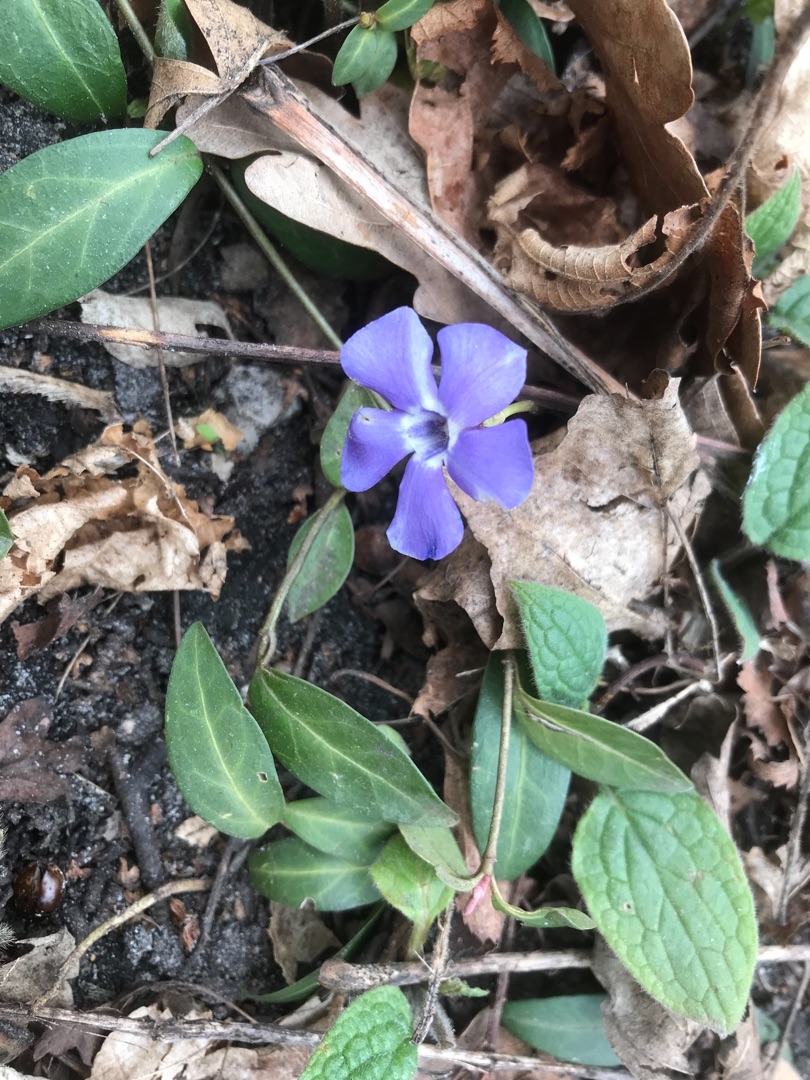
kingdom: Plantae
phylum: Tracheophyta
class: Magnoliopsida
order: Gentianales
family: Apocynaceae
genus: Vinca
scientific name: Vinca minor
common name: Liden singrøn
